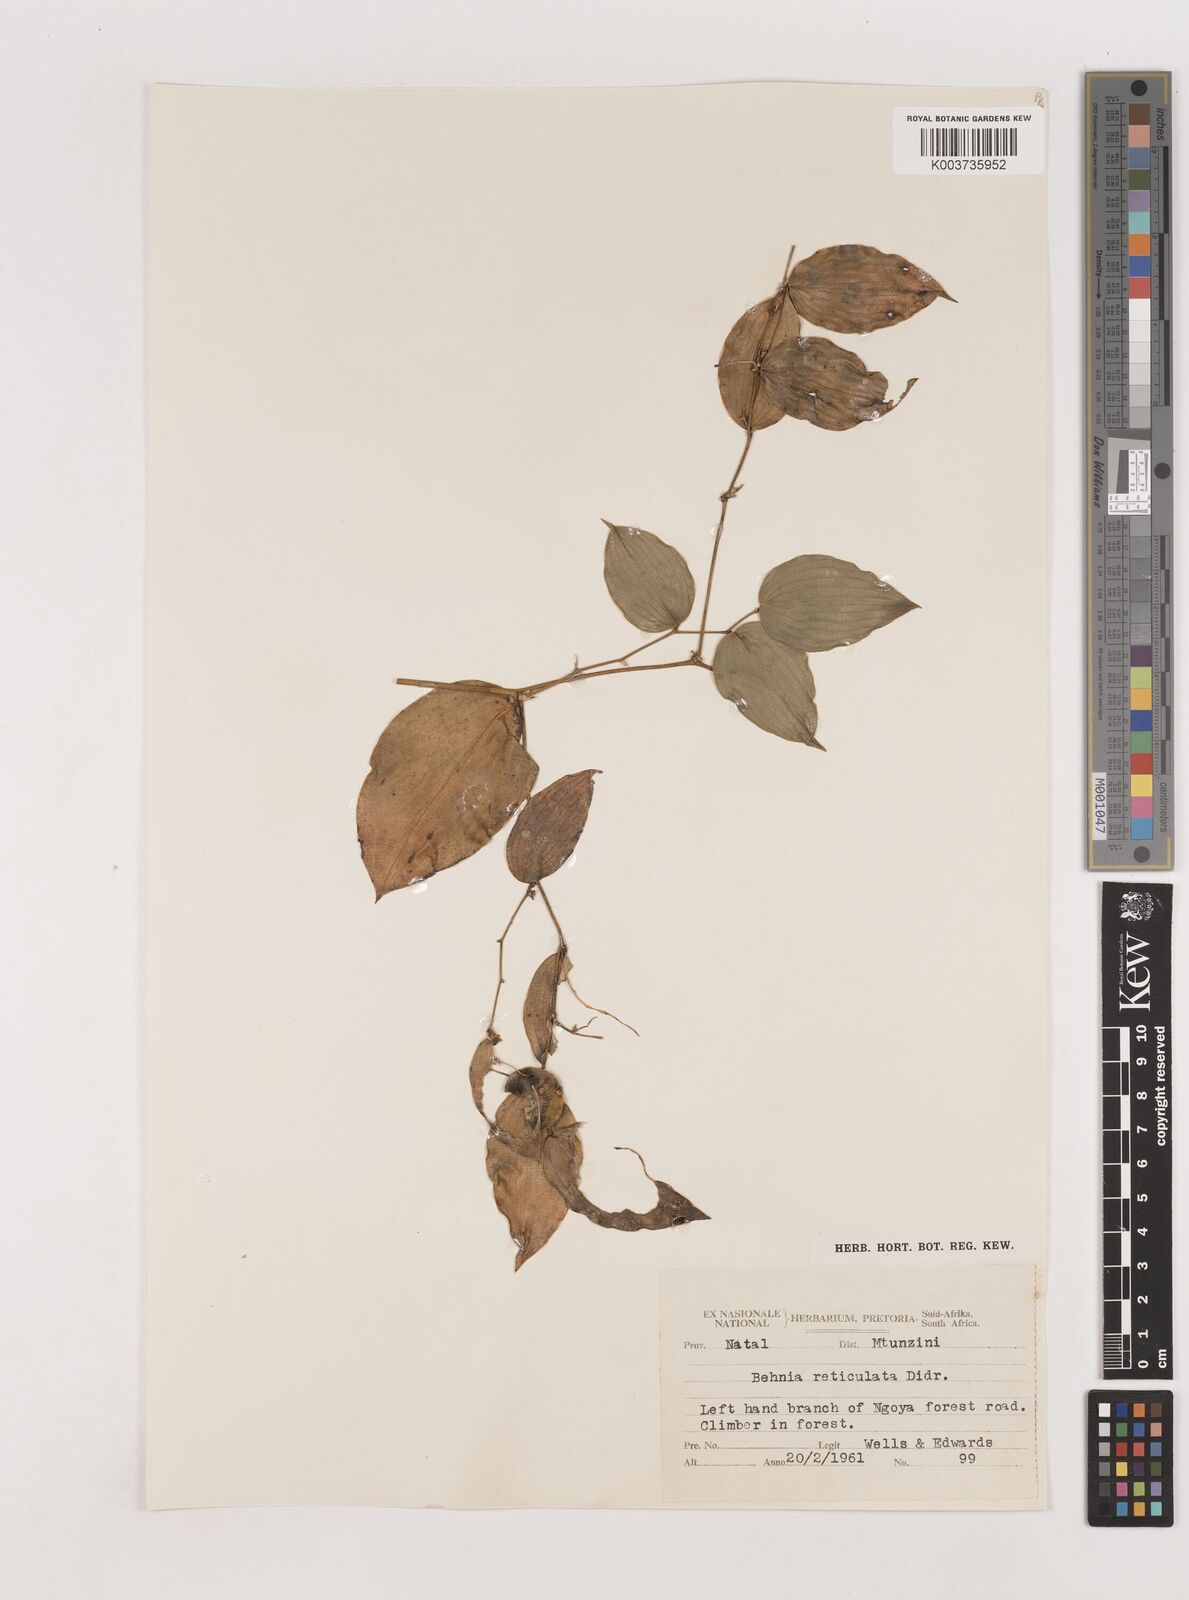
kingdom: Plantae
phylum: Tracheophyta
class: Liliopsida
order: Asparagales
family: Asparagaceae
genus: Behnia
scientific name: Behnia reticulata
